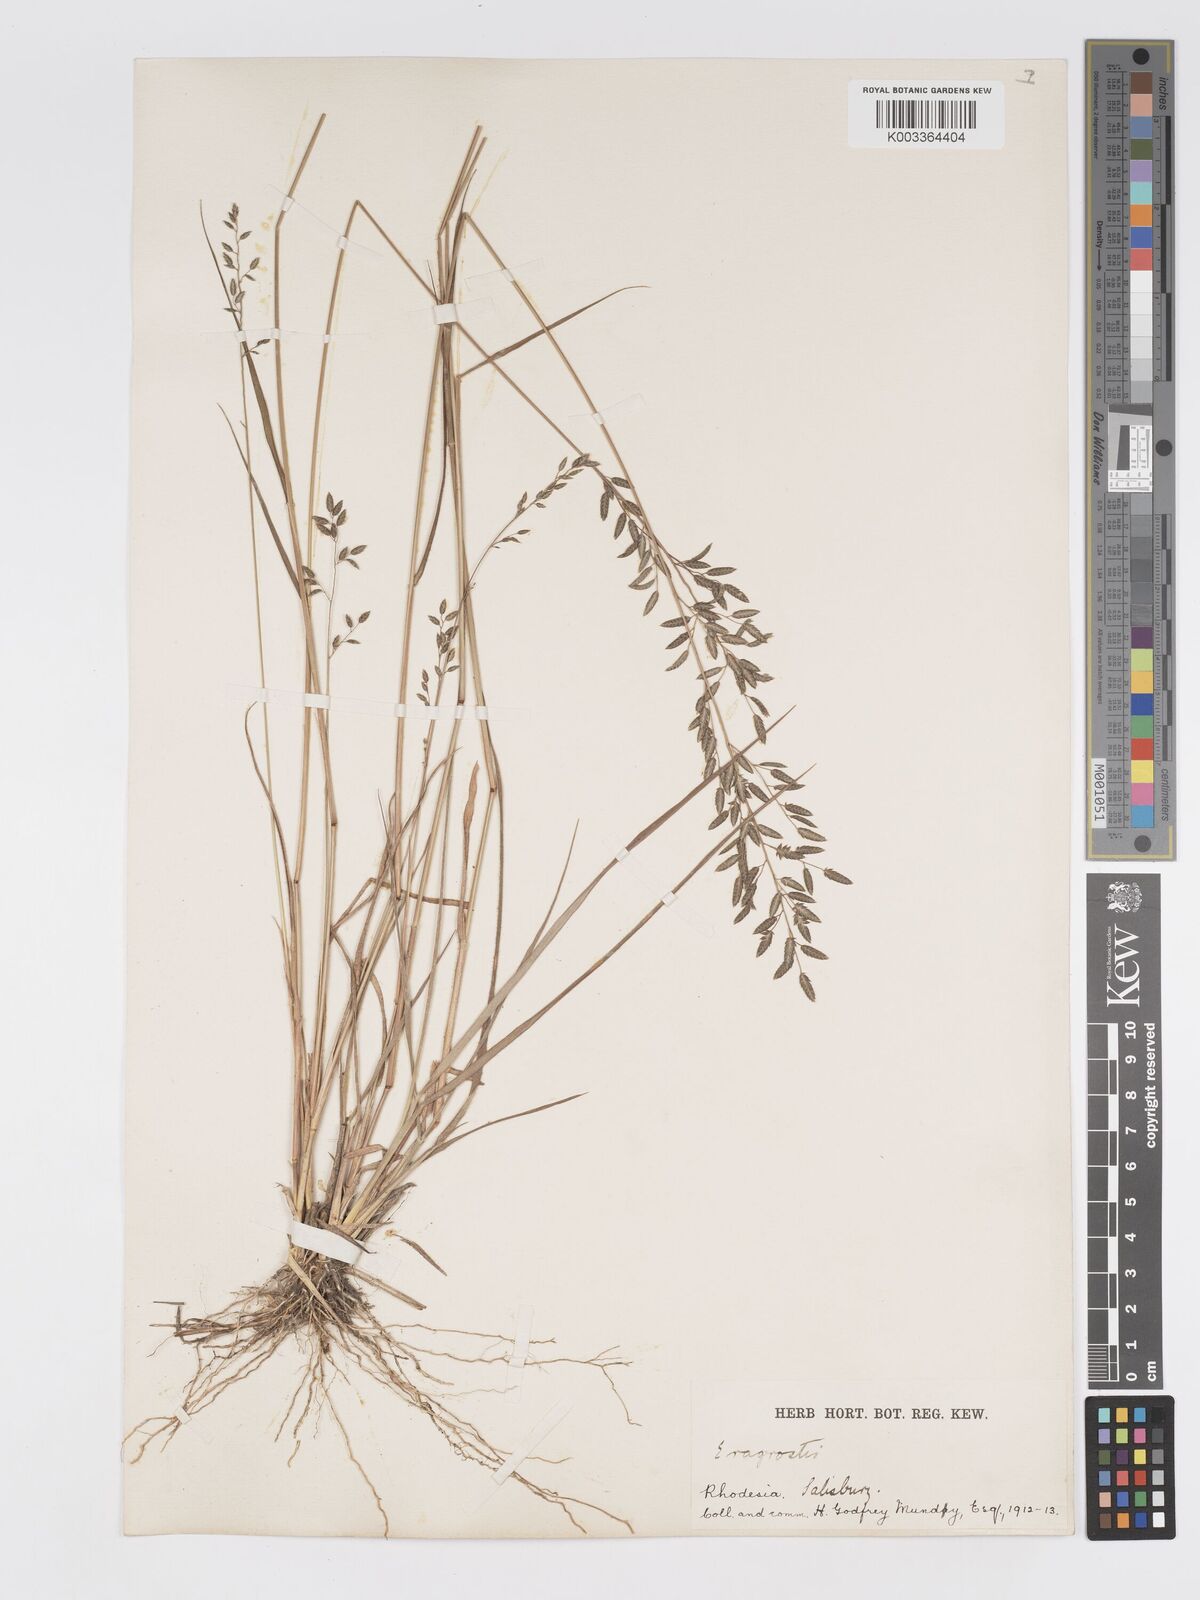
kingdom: Plantae
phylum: Tracheophyta
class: Liliopsida
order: Poales
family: Poaceae
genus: Eragrostis
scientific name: Eragrostis racemosa
